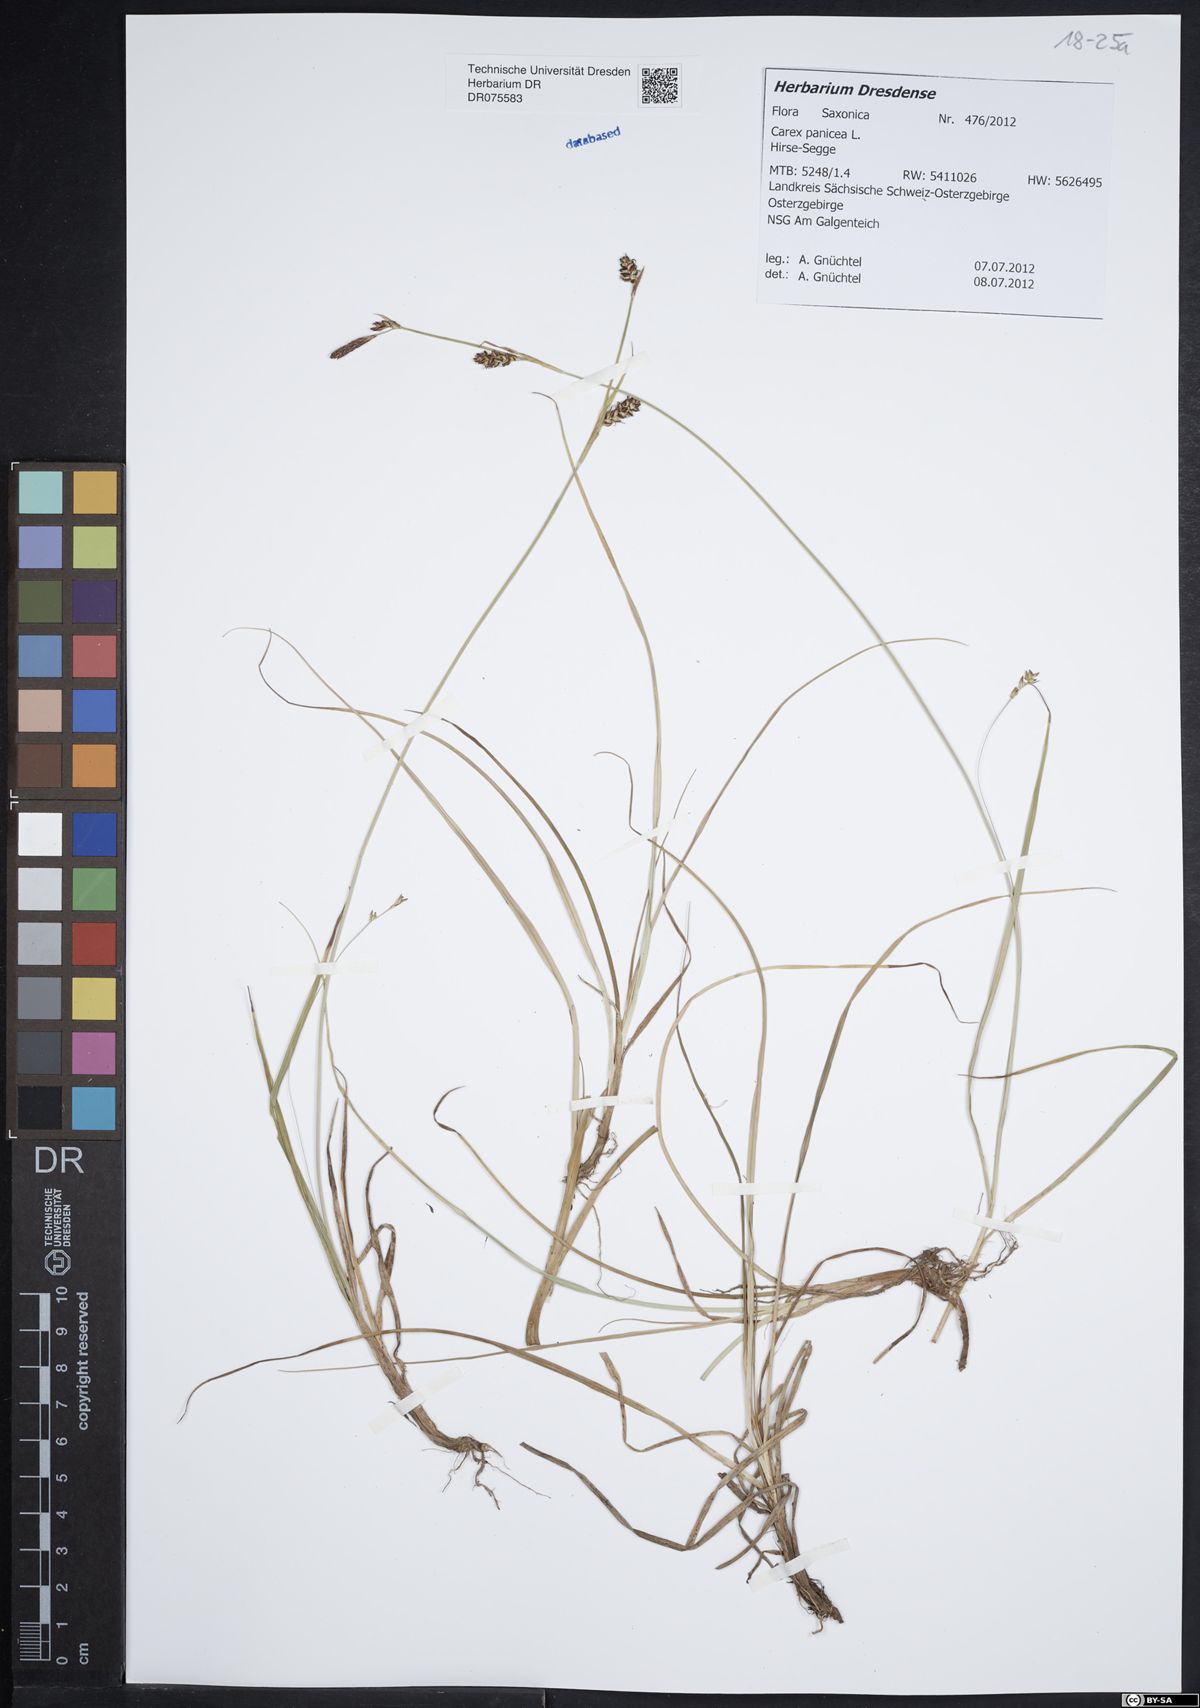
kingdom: Plantae
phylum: Tracheophyta
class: Liliopsida
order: Poales
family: Cyperaceae
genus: Carex
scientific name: Carex panicea
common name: Carnation sedge
